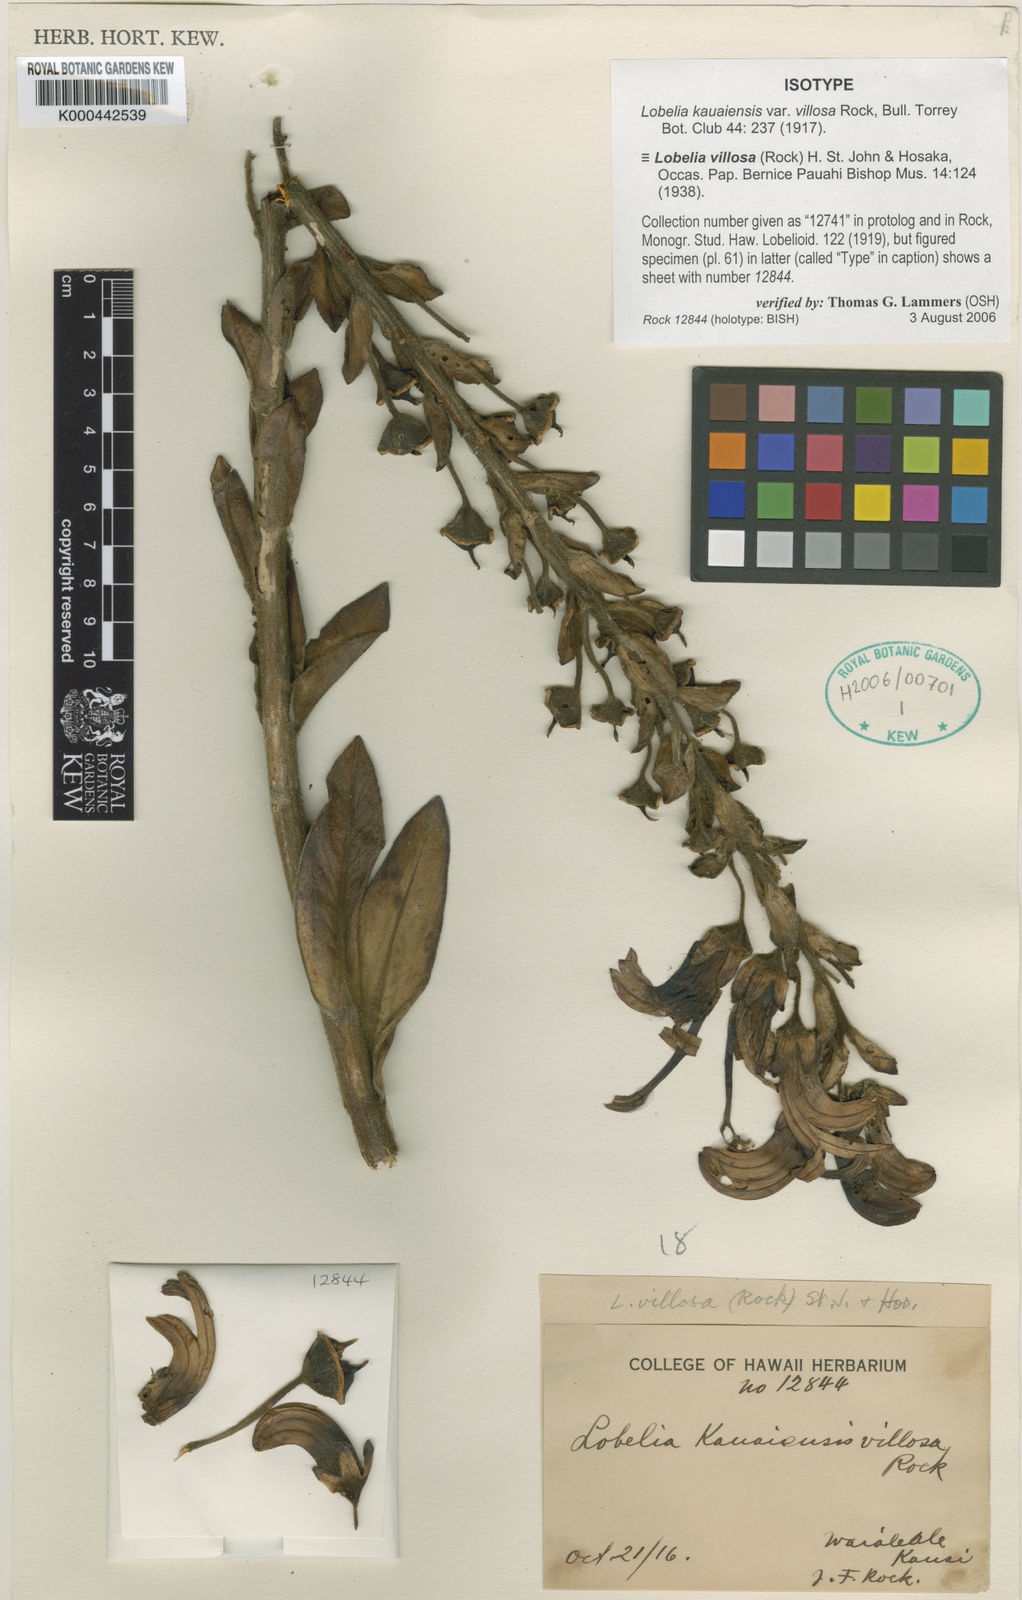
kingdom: Plantae
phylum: Tracheophyta
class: Magnoliopsida
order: Asterales
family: Campanulaceae
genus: Lobelia
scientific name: Lobelia villosa
